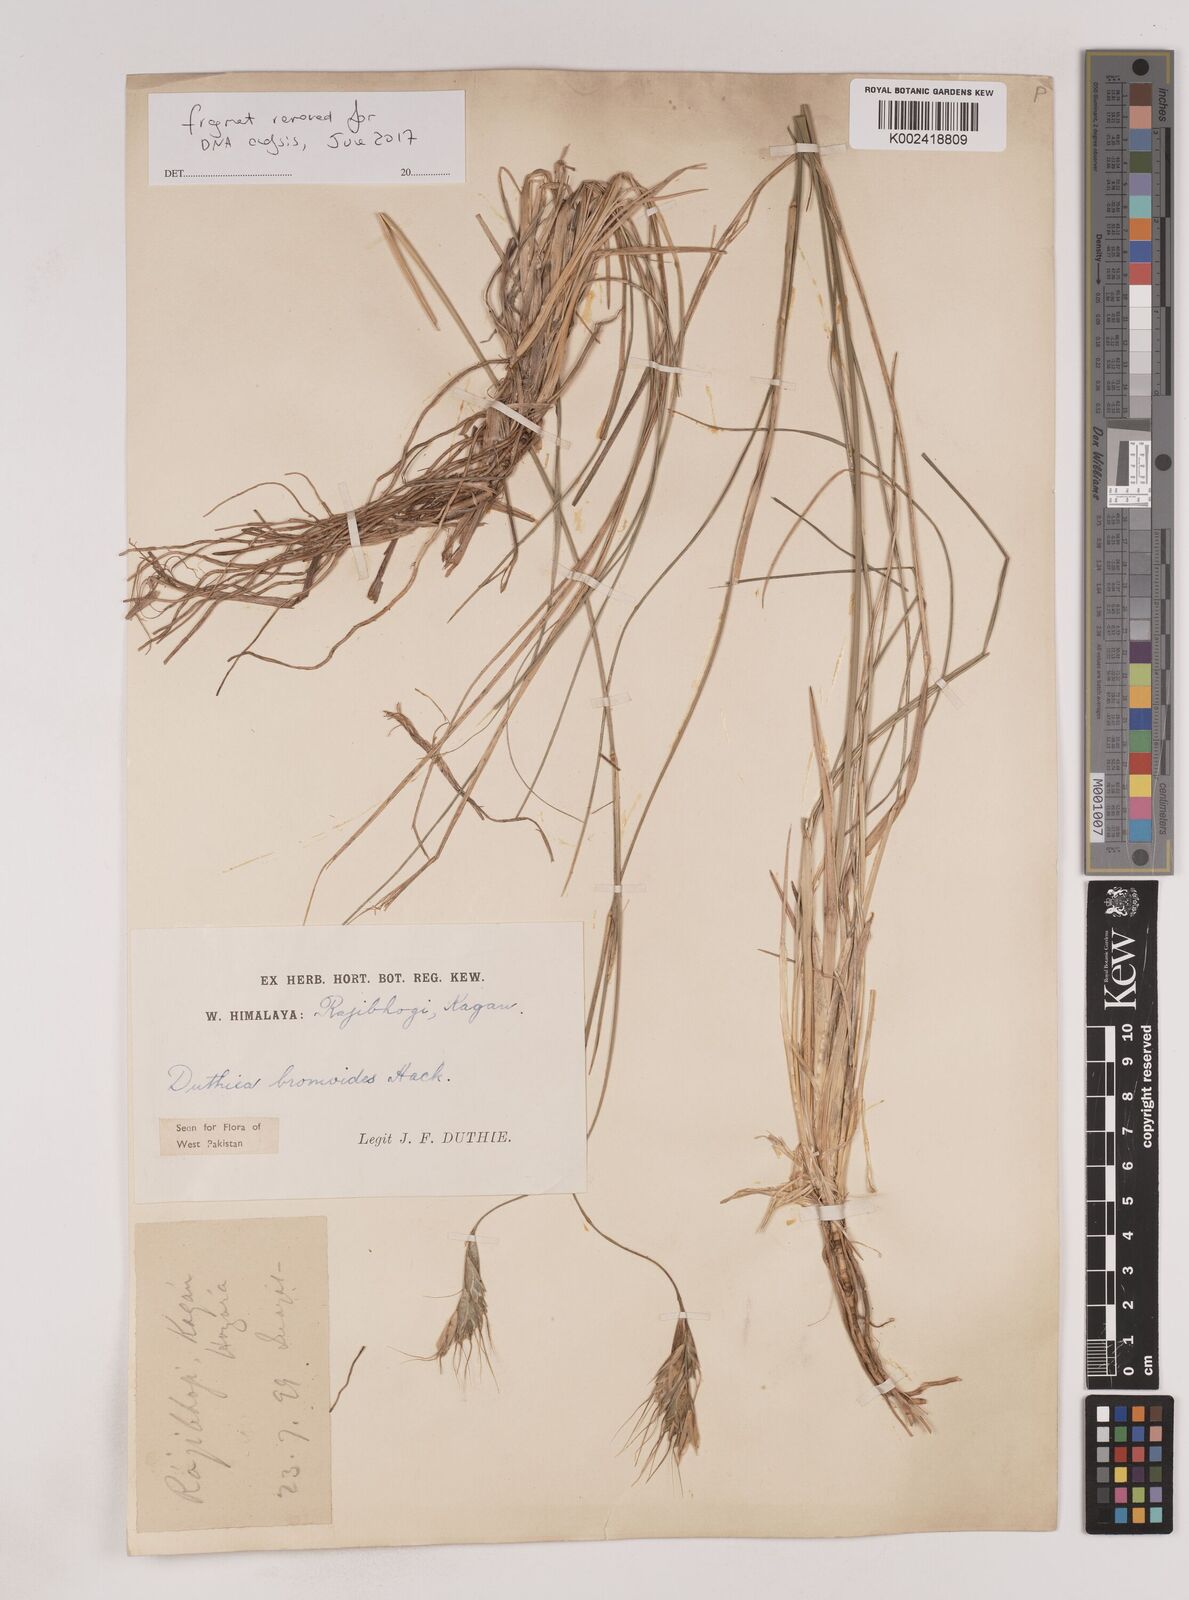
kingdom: Plantae
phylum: Tracheophyta
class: Liliopsida
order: Poales
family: Poaceae
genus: Duthiea
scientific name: Duthiea bromoides
